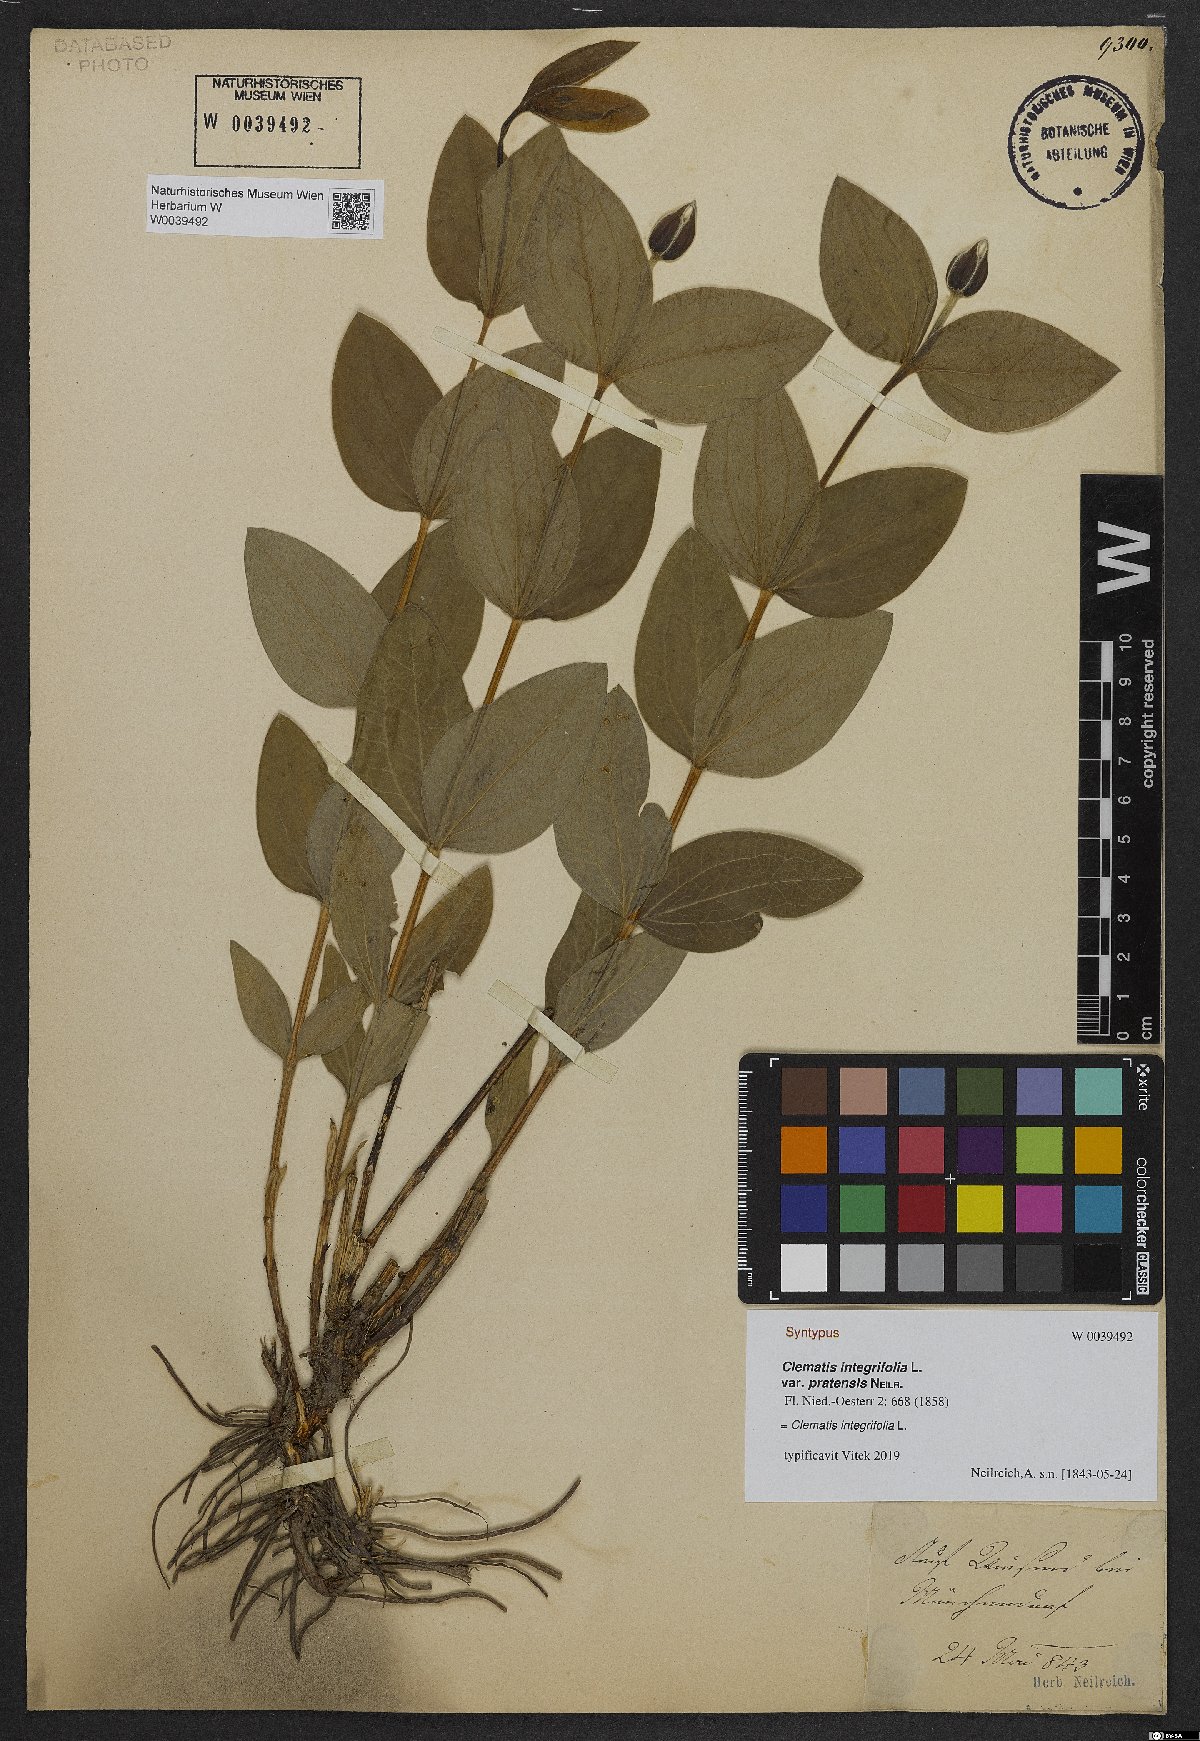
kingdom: Plantae
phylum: Tracheophyta
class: Magnoliopsida
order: Ranunculales
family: Ranunculaceae
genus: Clematis
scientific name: Clematis integrifolia
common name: Solitary clematis
